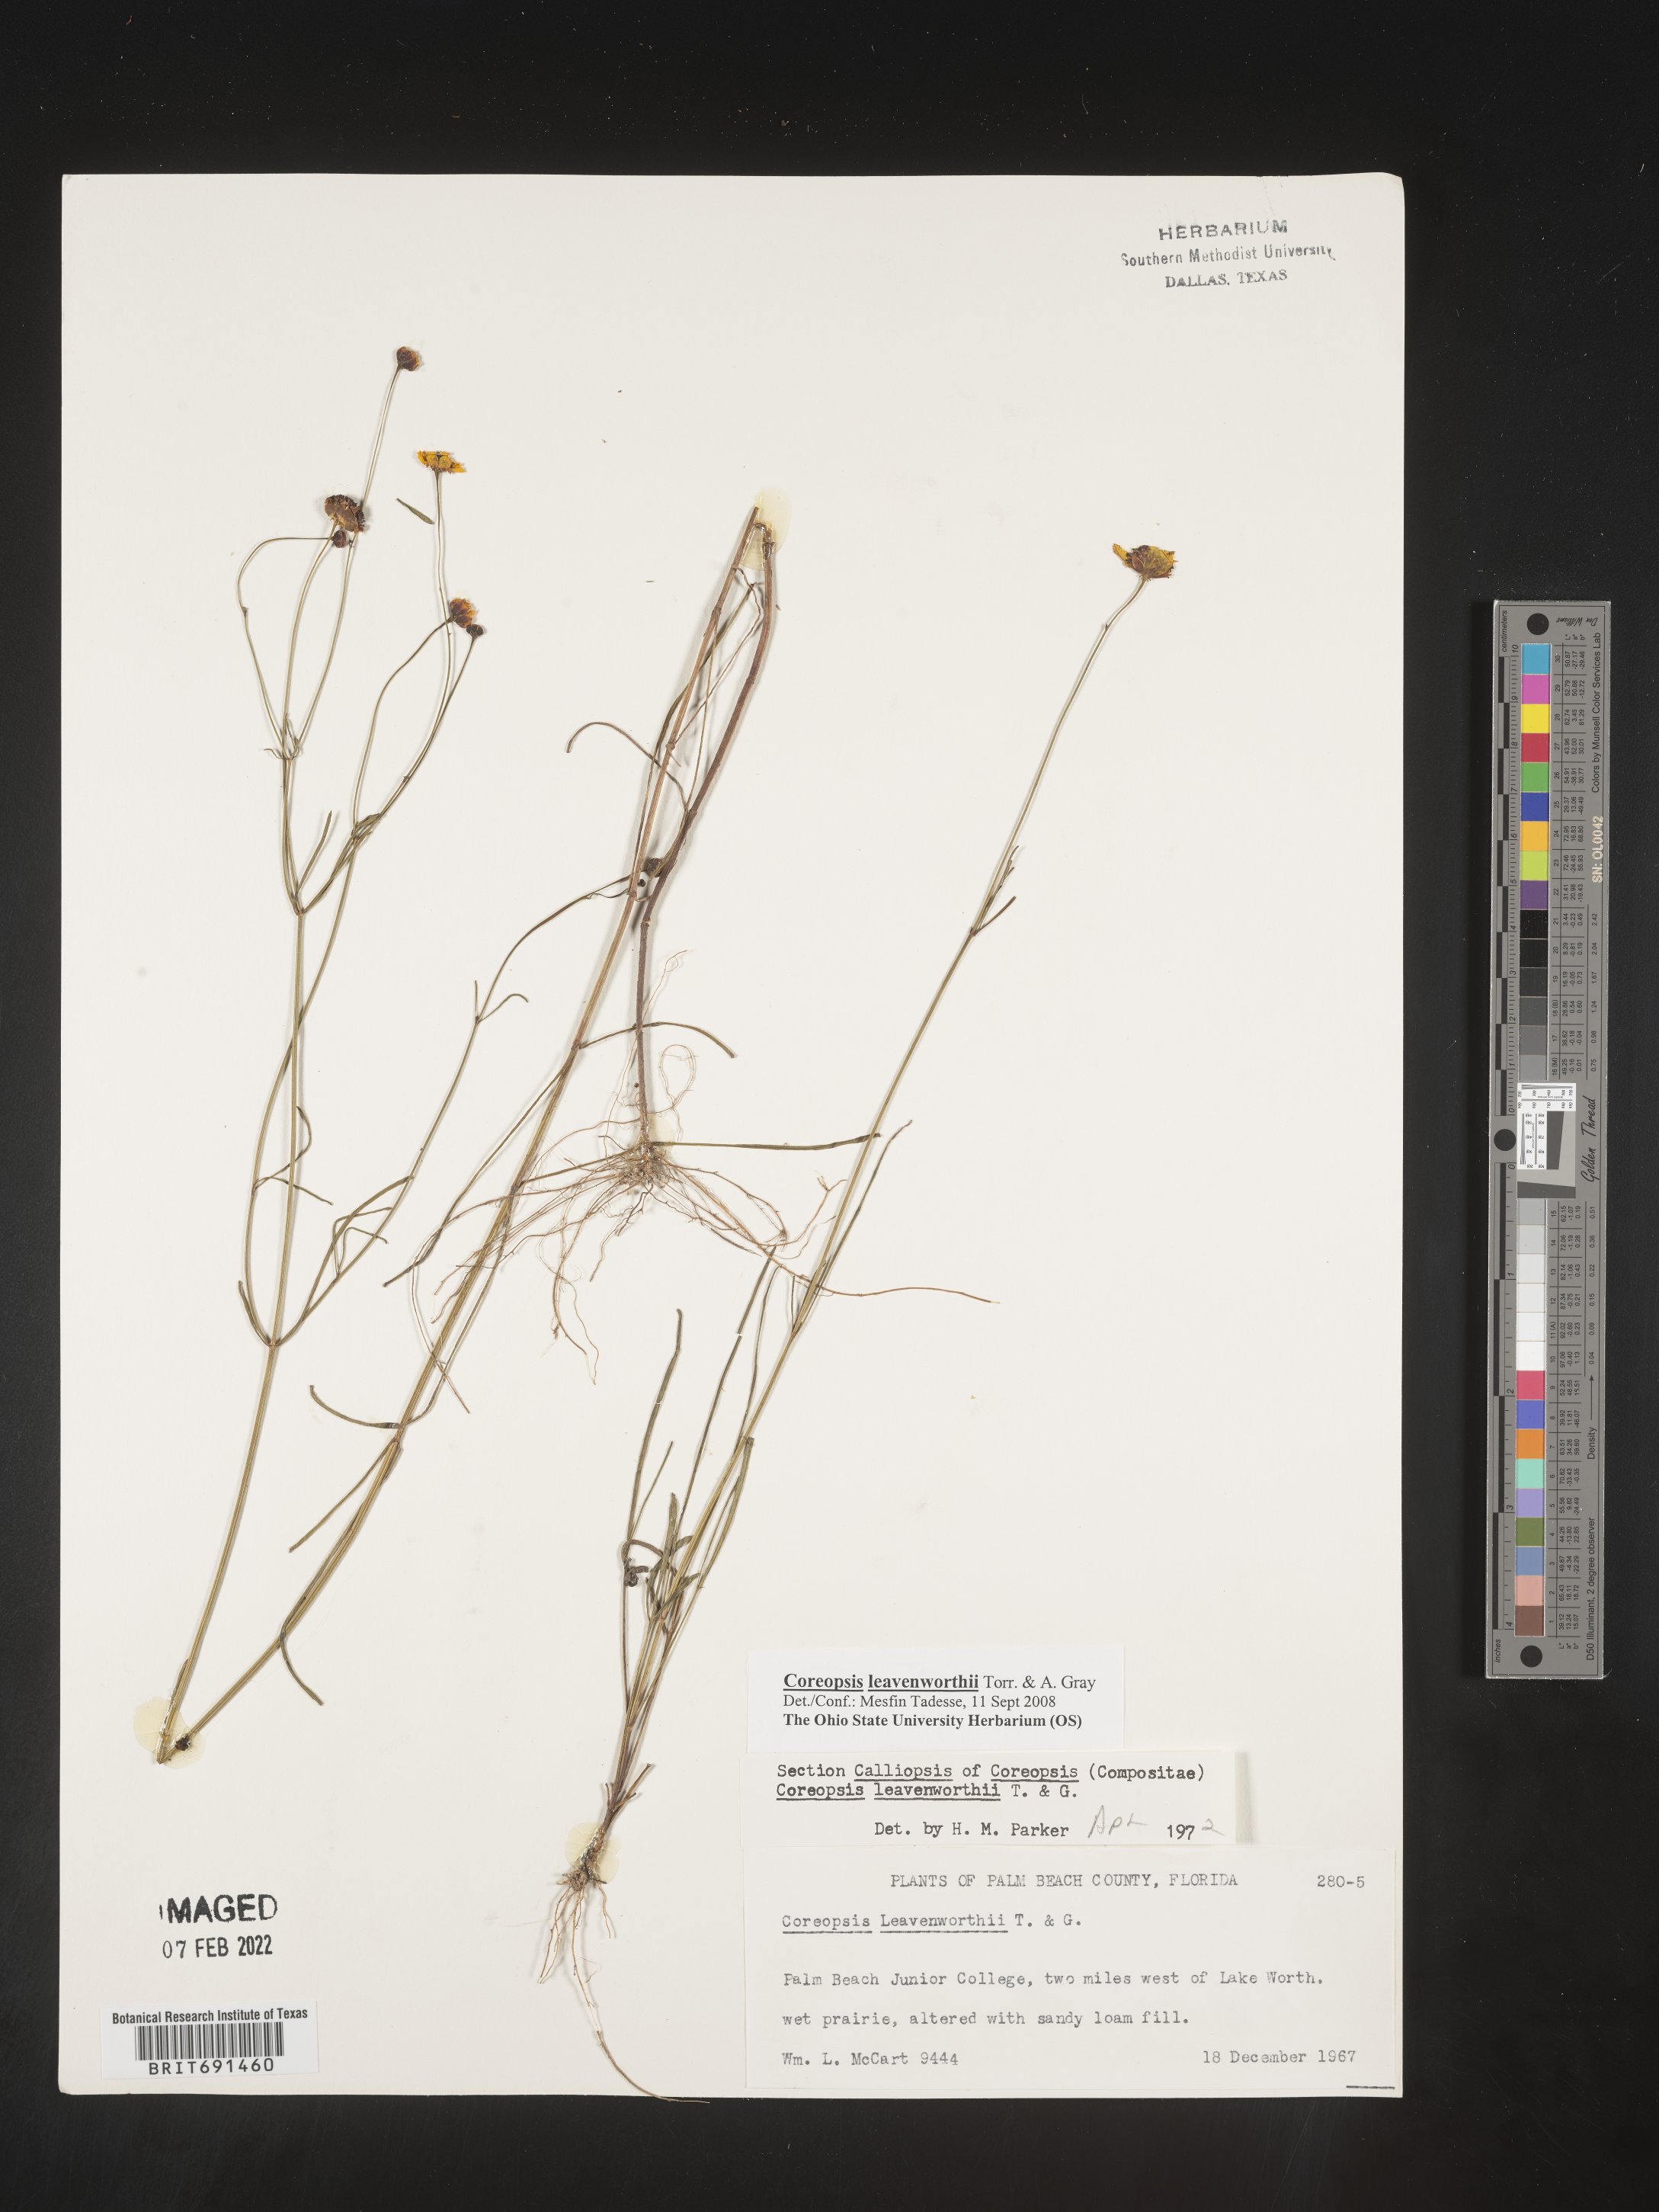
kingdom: Plantae
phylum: Tracheophyta
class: Magnoliopsida
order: Asterales
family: Asteraceae
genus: Coreopsis
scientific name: Coreopsis leavenworthii
